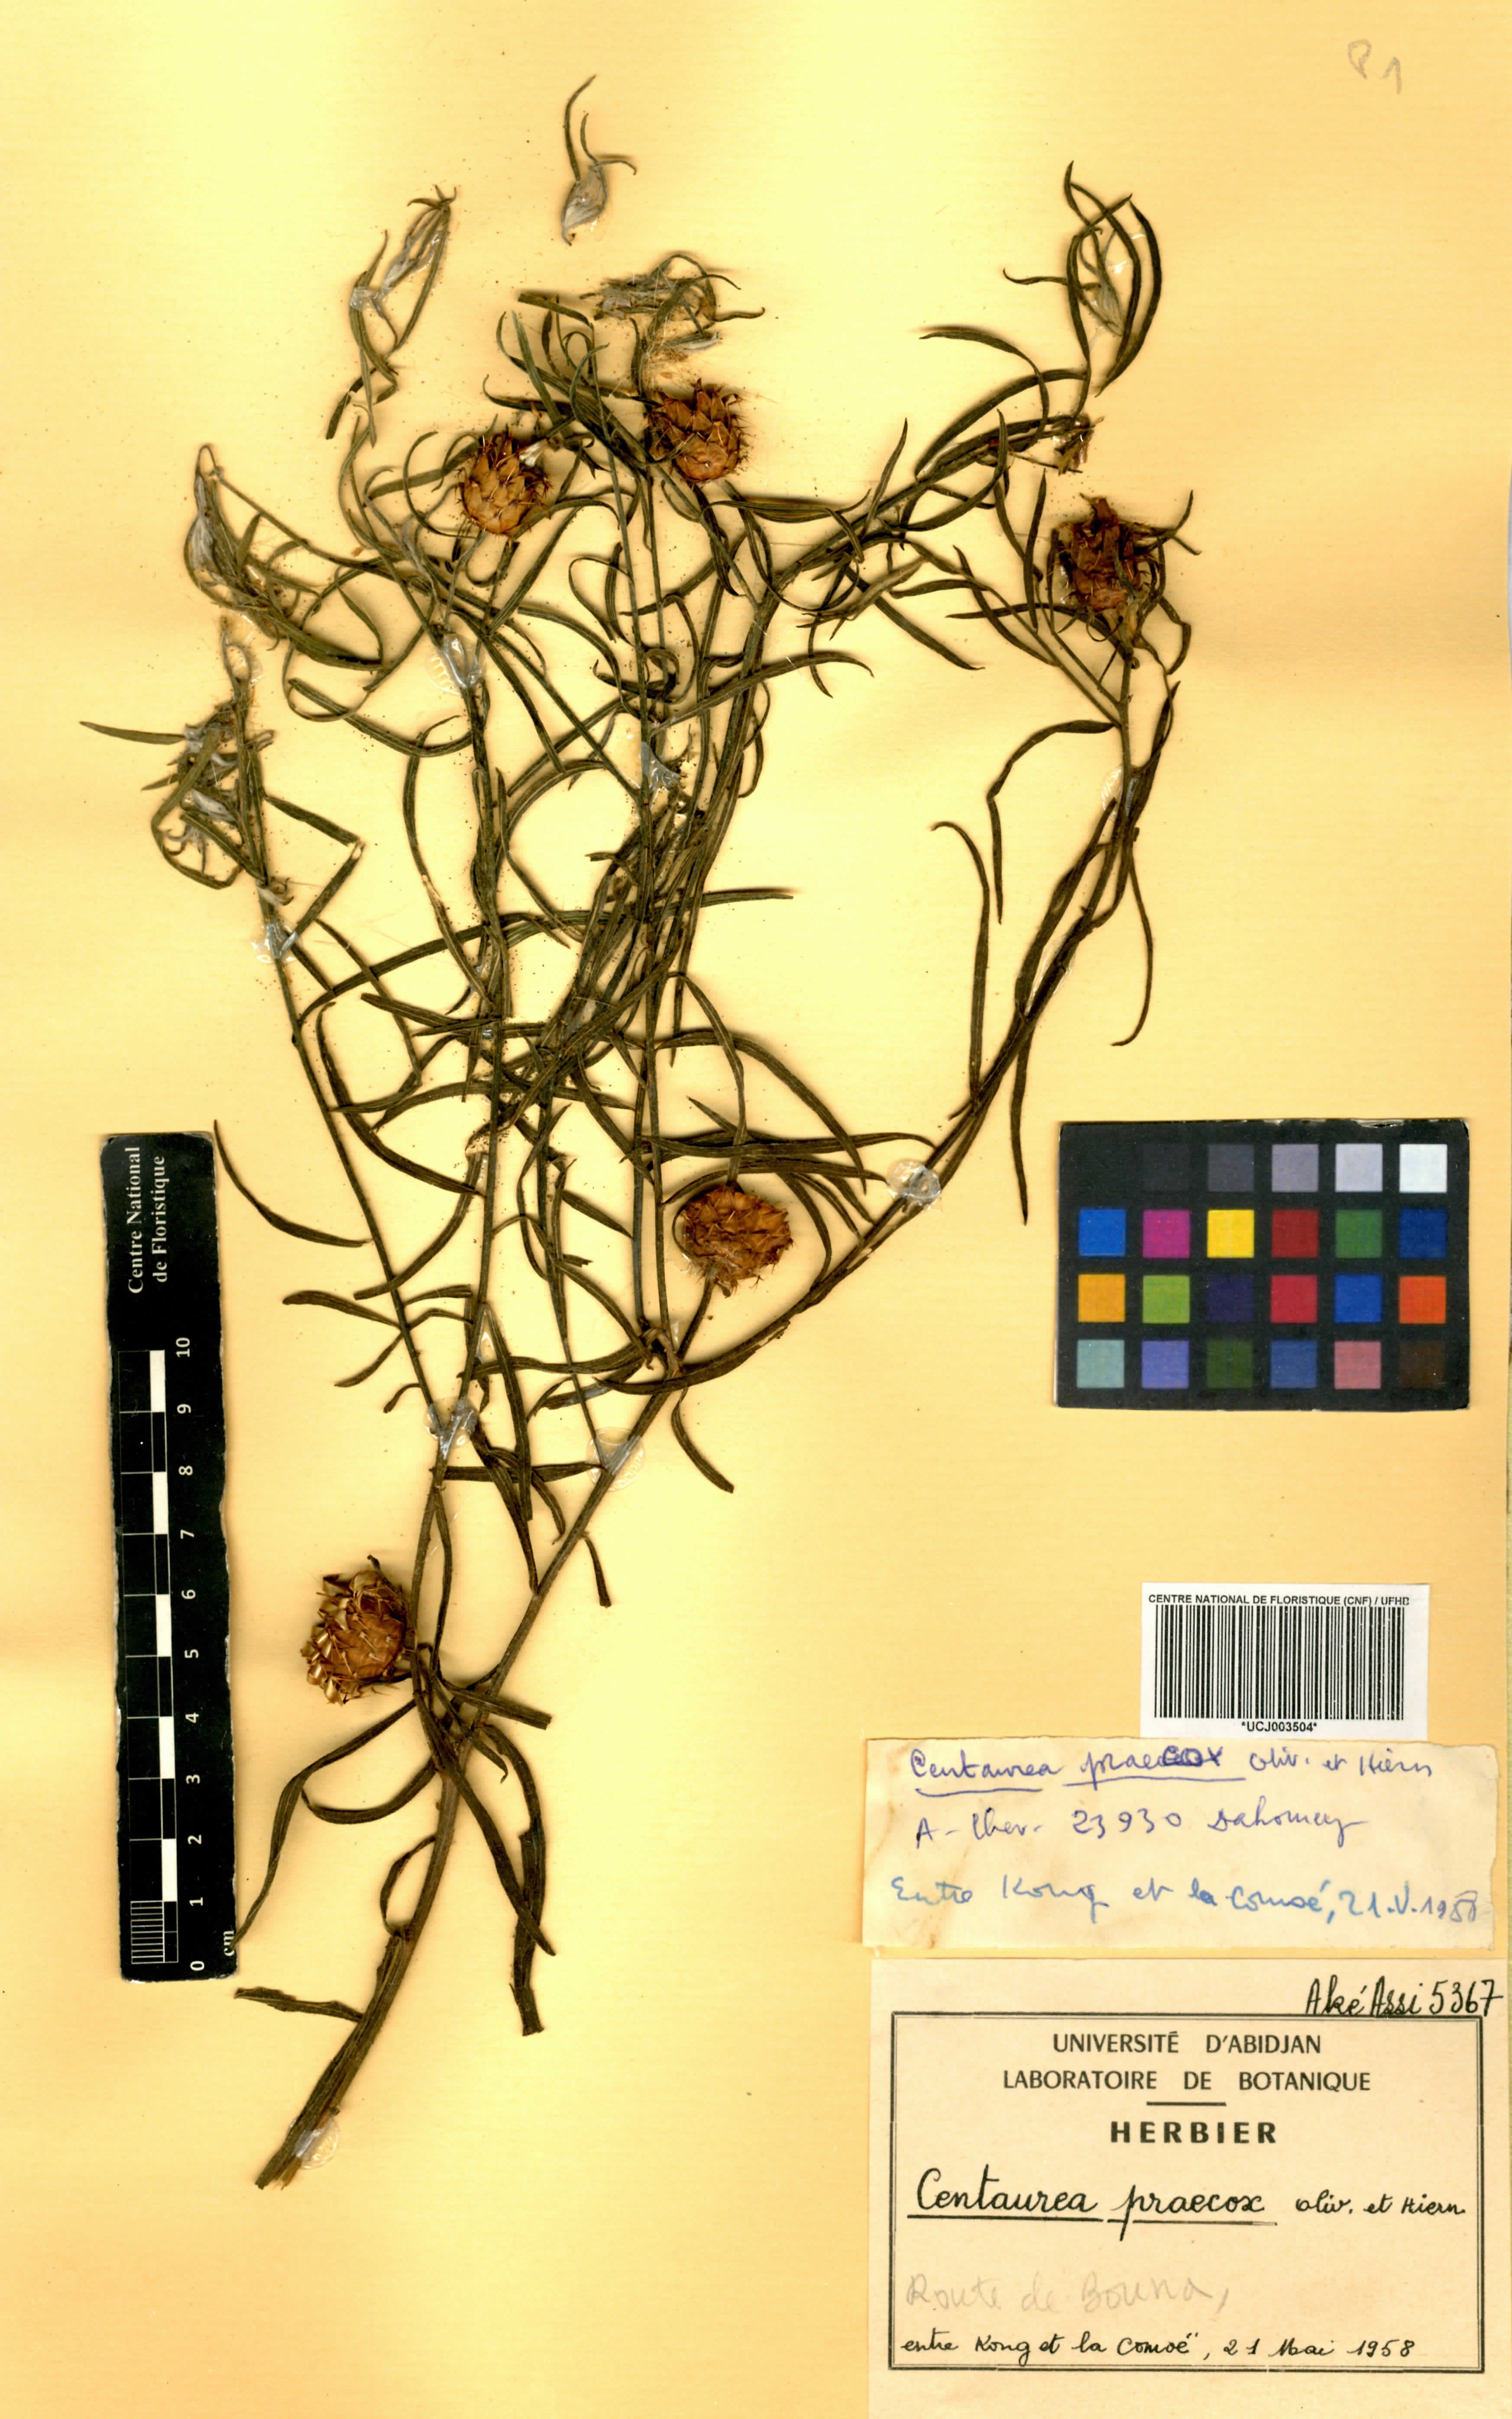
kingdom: Plantae
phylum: Tracheophyta
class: Magnoliopsida
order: Asterales
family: Asteraceae
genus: Centaurea
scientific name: Centaurea praecox
